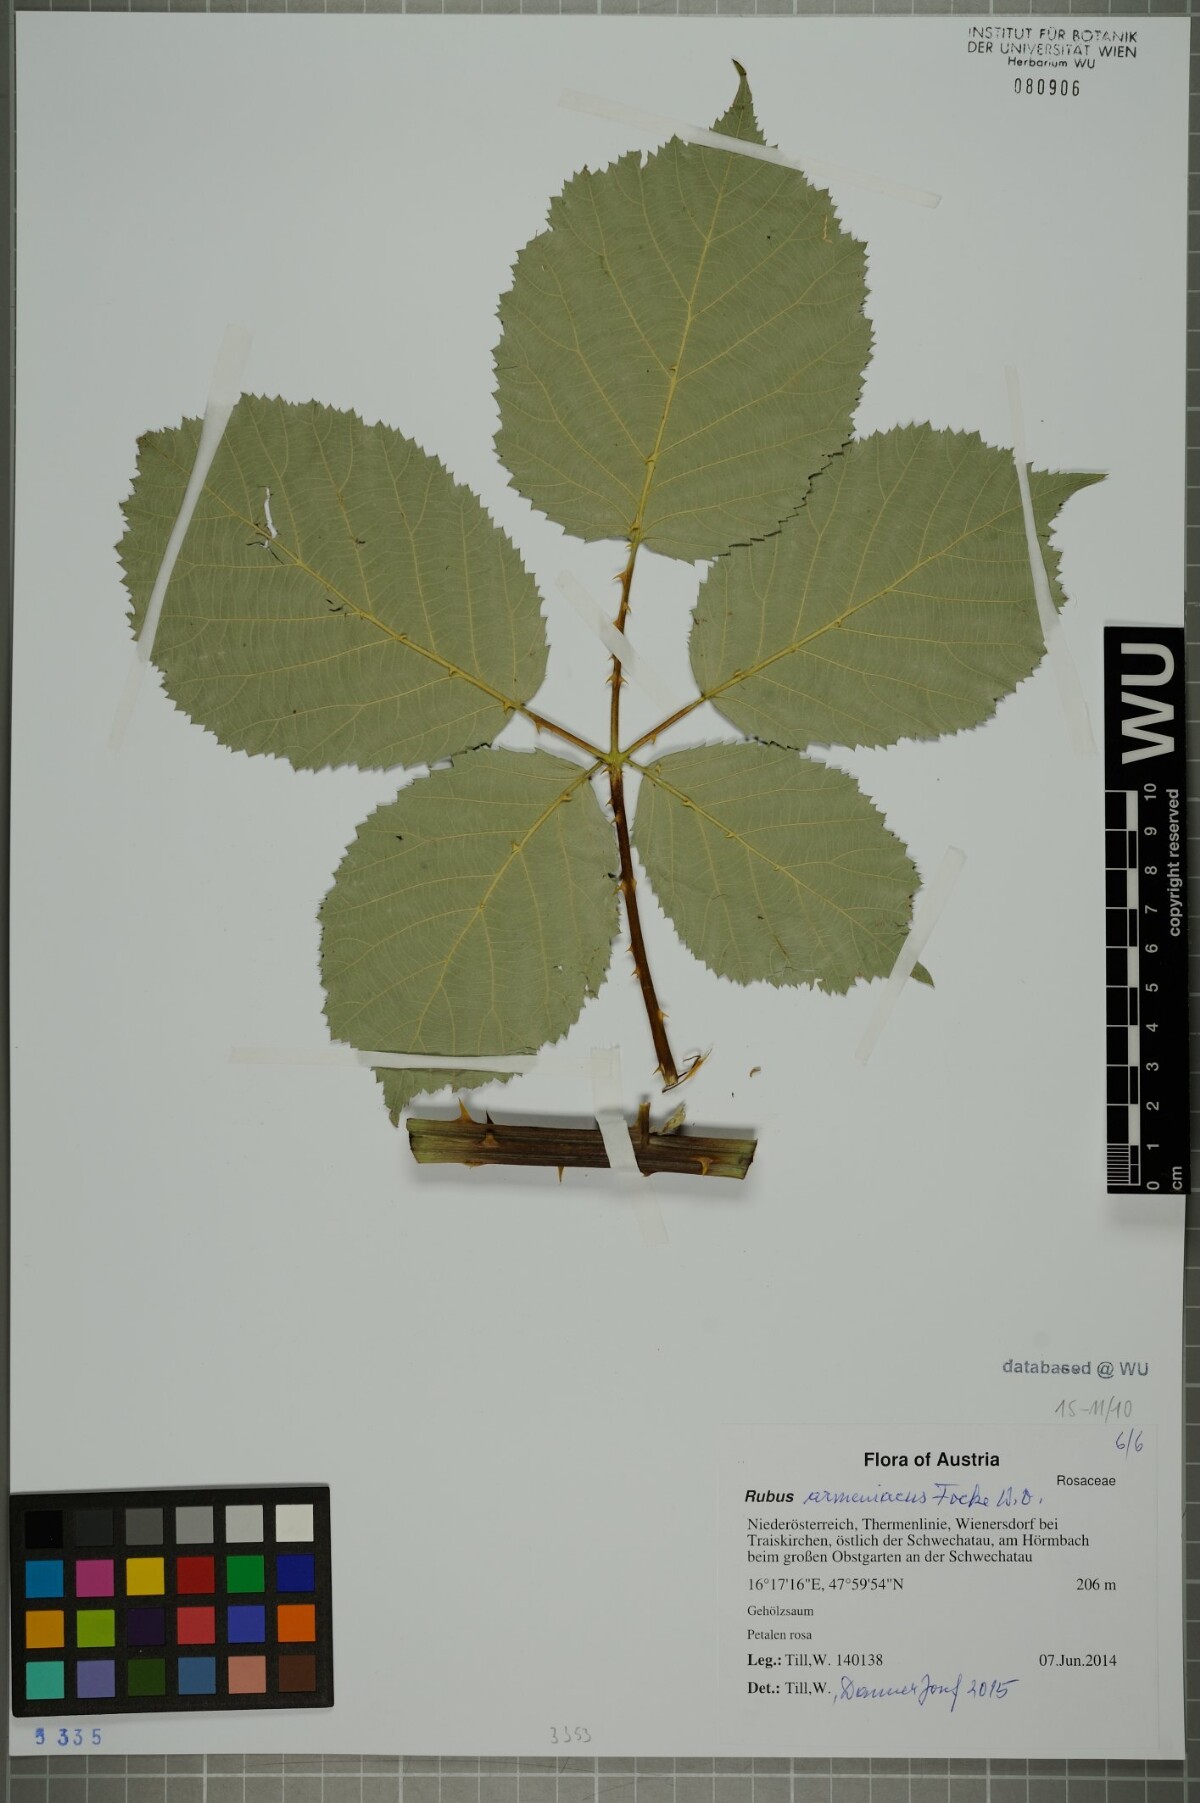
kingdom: Plantae
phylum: Tracheophyta
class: Magnoliopsida
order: Rosales
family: Rosaceae
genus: Rubus
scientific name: Rubus armeniacus
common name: Himalayan blackberry
